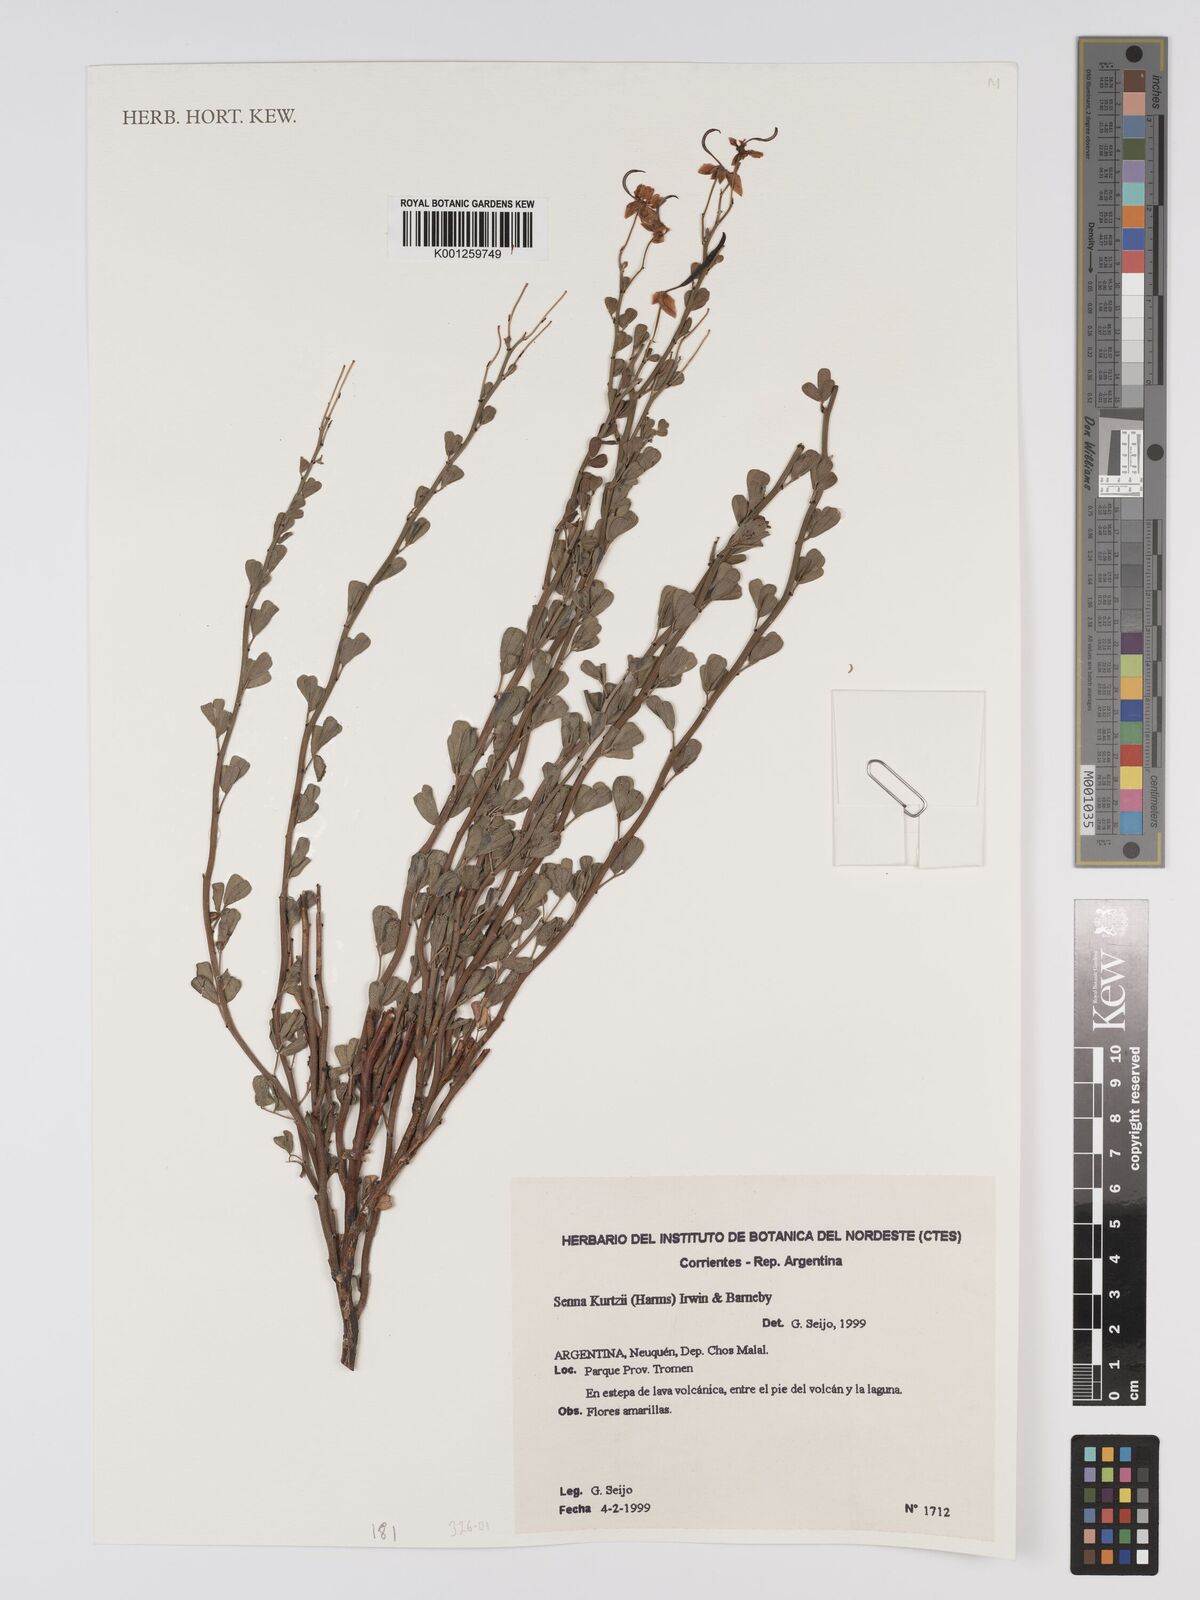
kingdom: Plantae
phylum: Tracheophyta
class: Magnoliopsida
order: Fabales
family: Fabaceae
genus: Senna
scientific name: Senna kurtzii
